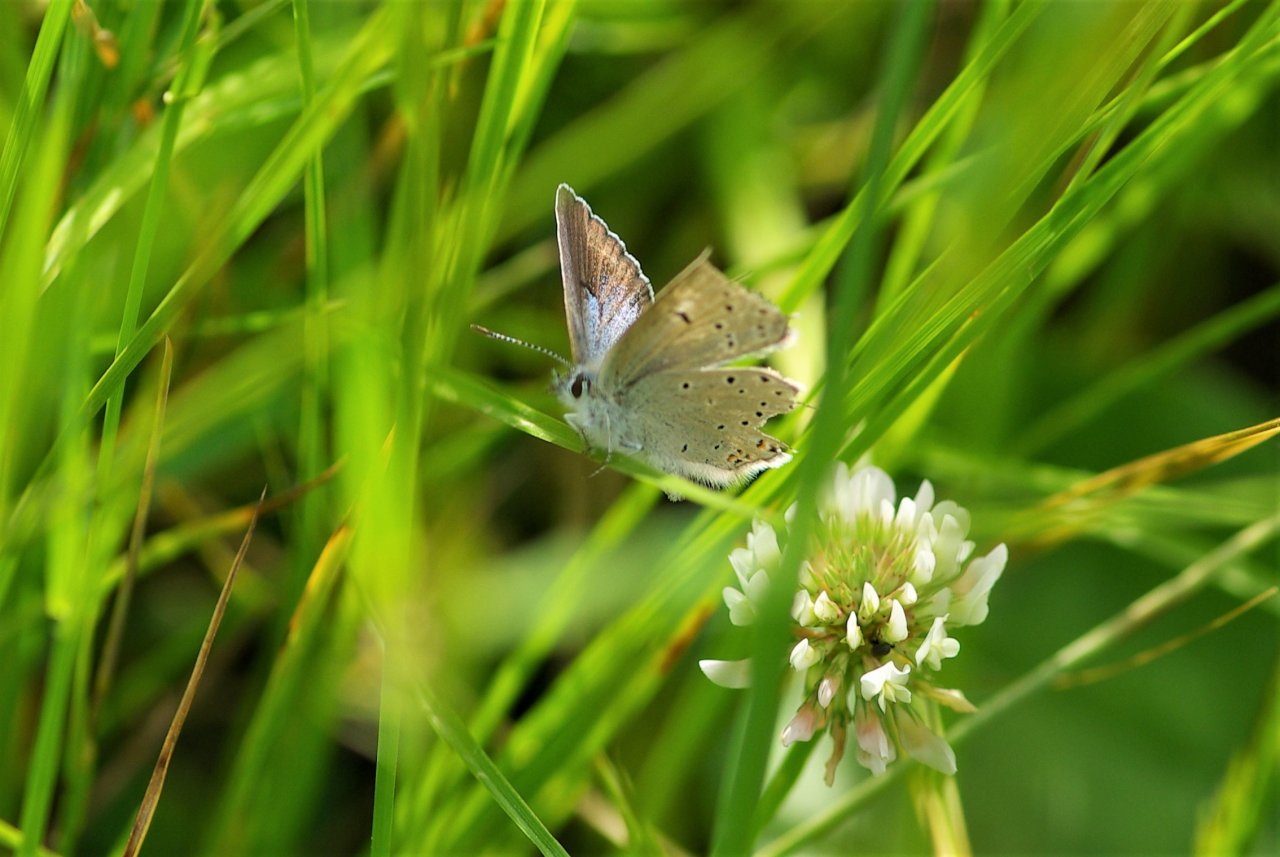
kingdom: Animalia
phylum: Arthropoda
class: Insecta
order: Lepidoptera
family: Lycaenidae
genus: Plebejus
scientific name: Plebejus saepiolus
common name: Greenish Blue
